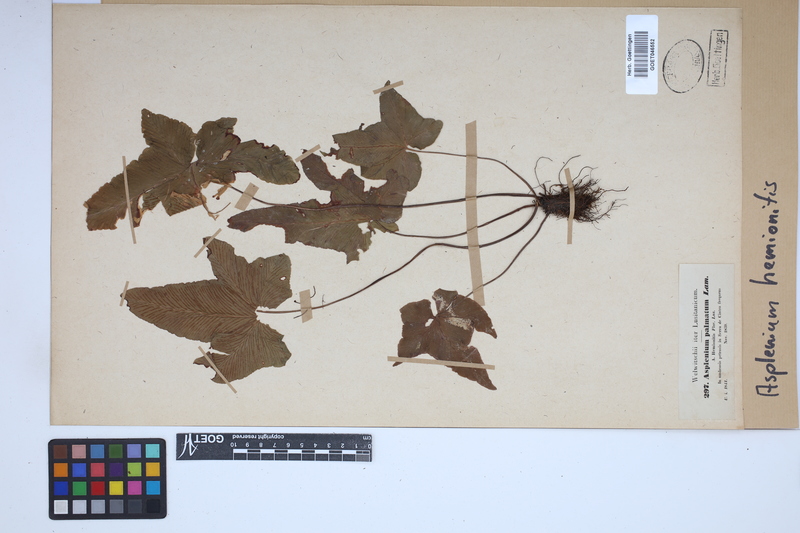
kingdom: Plantae
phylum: Tracheophyta
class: Polypodiopsida
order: Polypodiales
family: Aspleniaceae
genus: Asplenium
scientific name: Asplenium hemionitis
